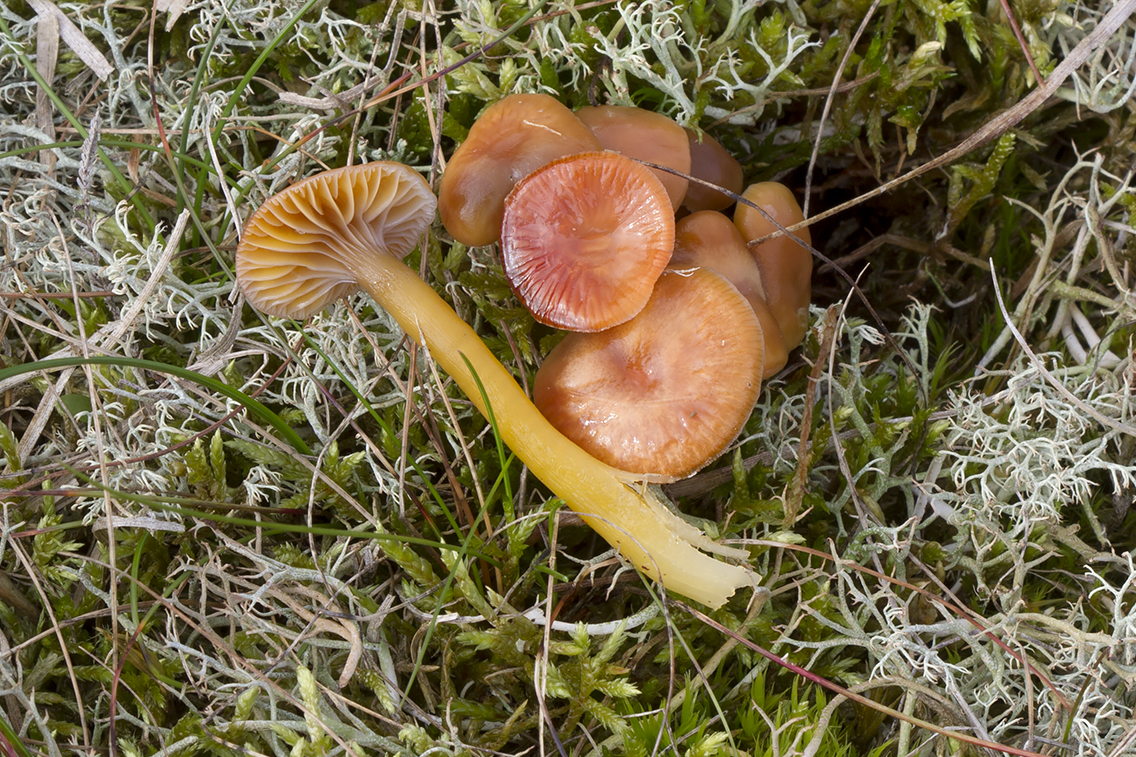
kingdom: Fungi
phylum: Basidiomycota
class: Agaricomycetes
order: Agaricales
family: Hygrophoraceae
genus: Gliophorus
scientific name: Gliophorus laetus
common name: brusk-vokshat
